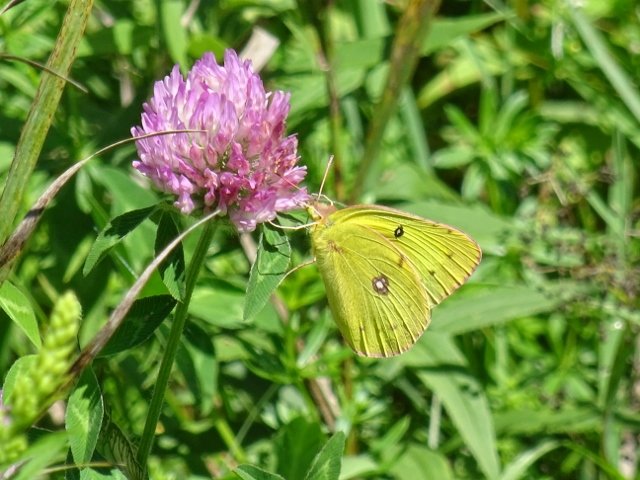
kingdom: Animalia
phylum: Arthropoda
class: Insecta
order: Lepidoptera
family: Pieridae
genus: Colias
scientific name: Colias philodice
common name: Clouded Sulphur
